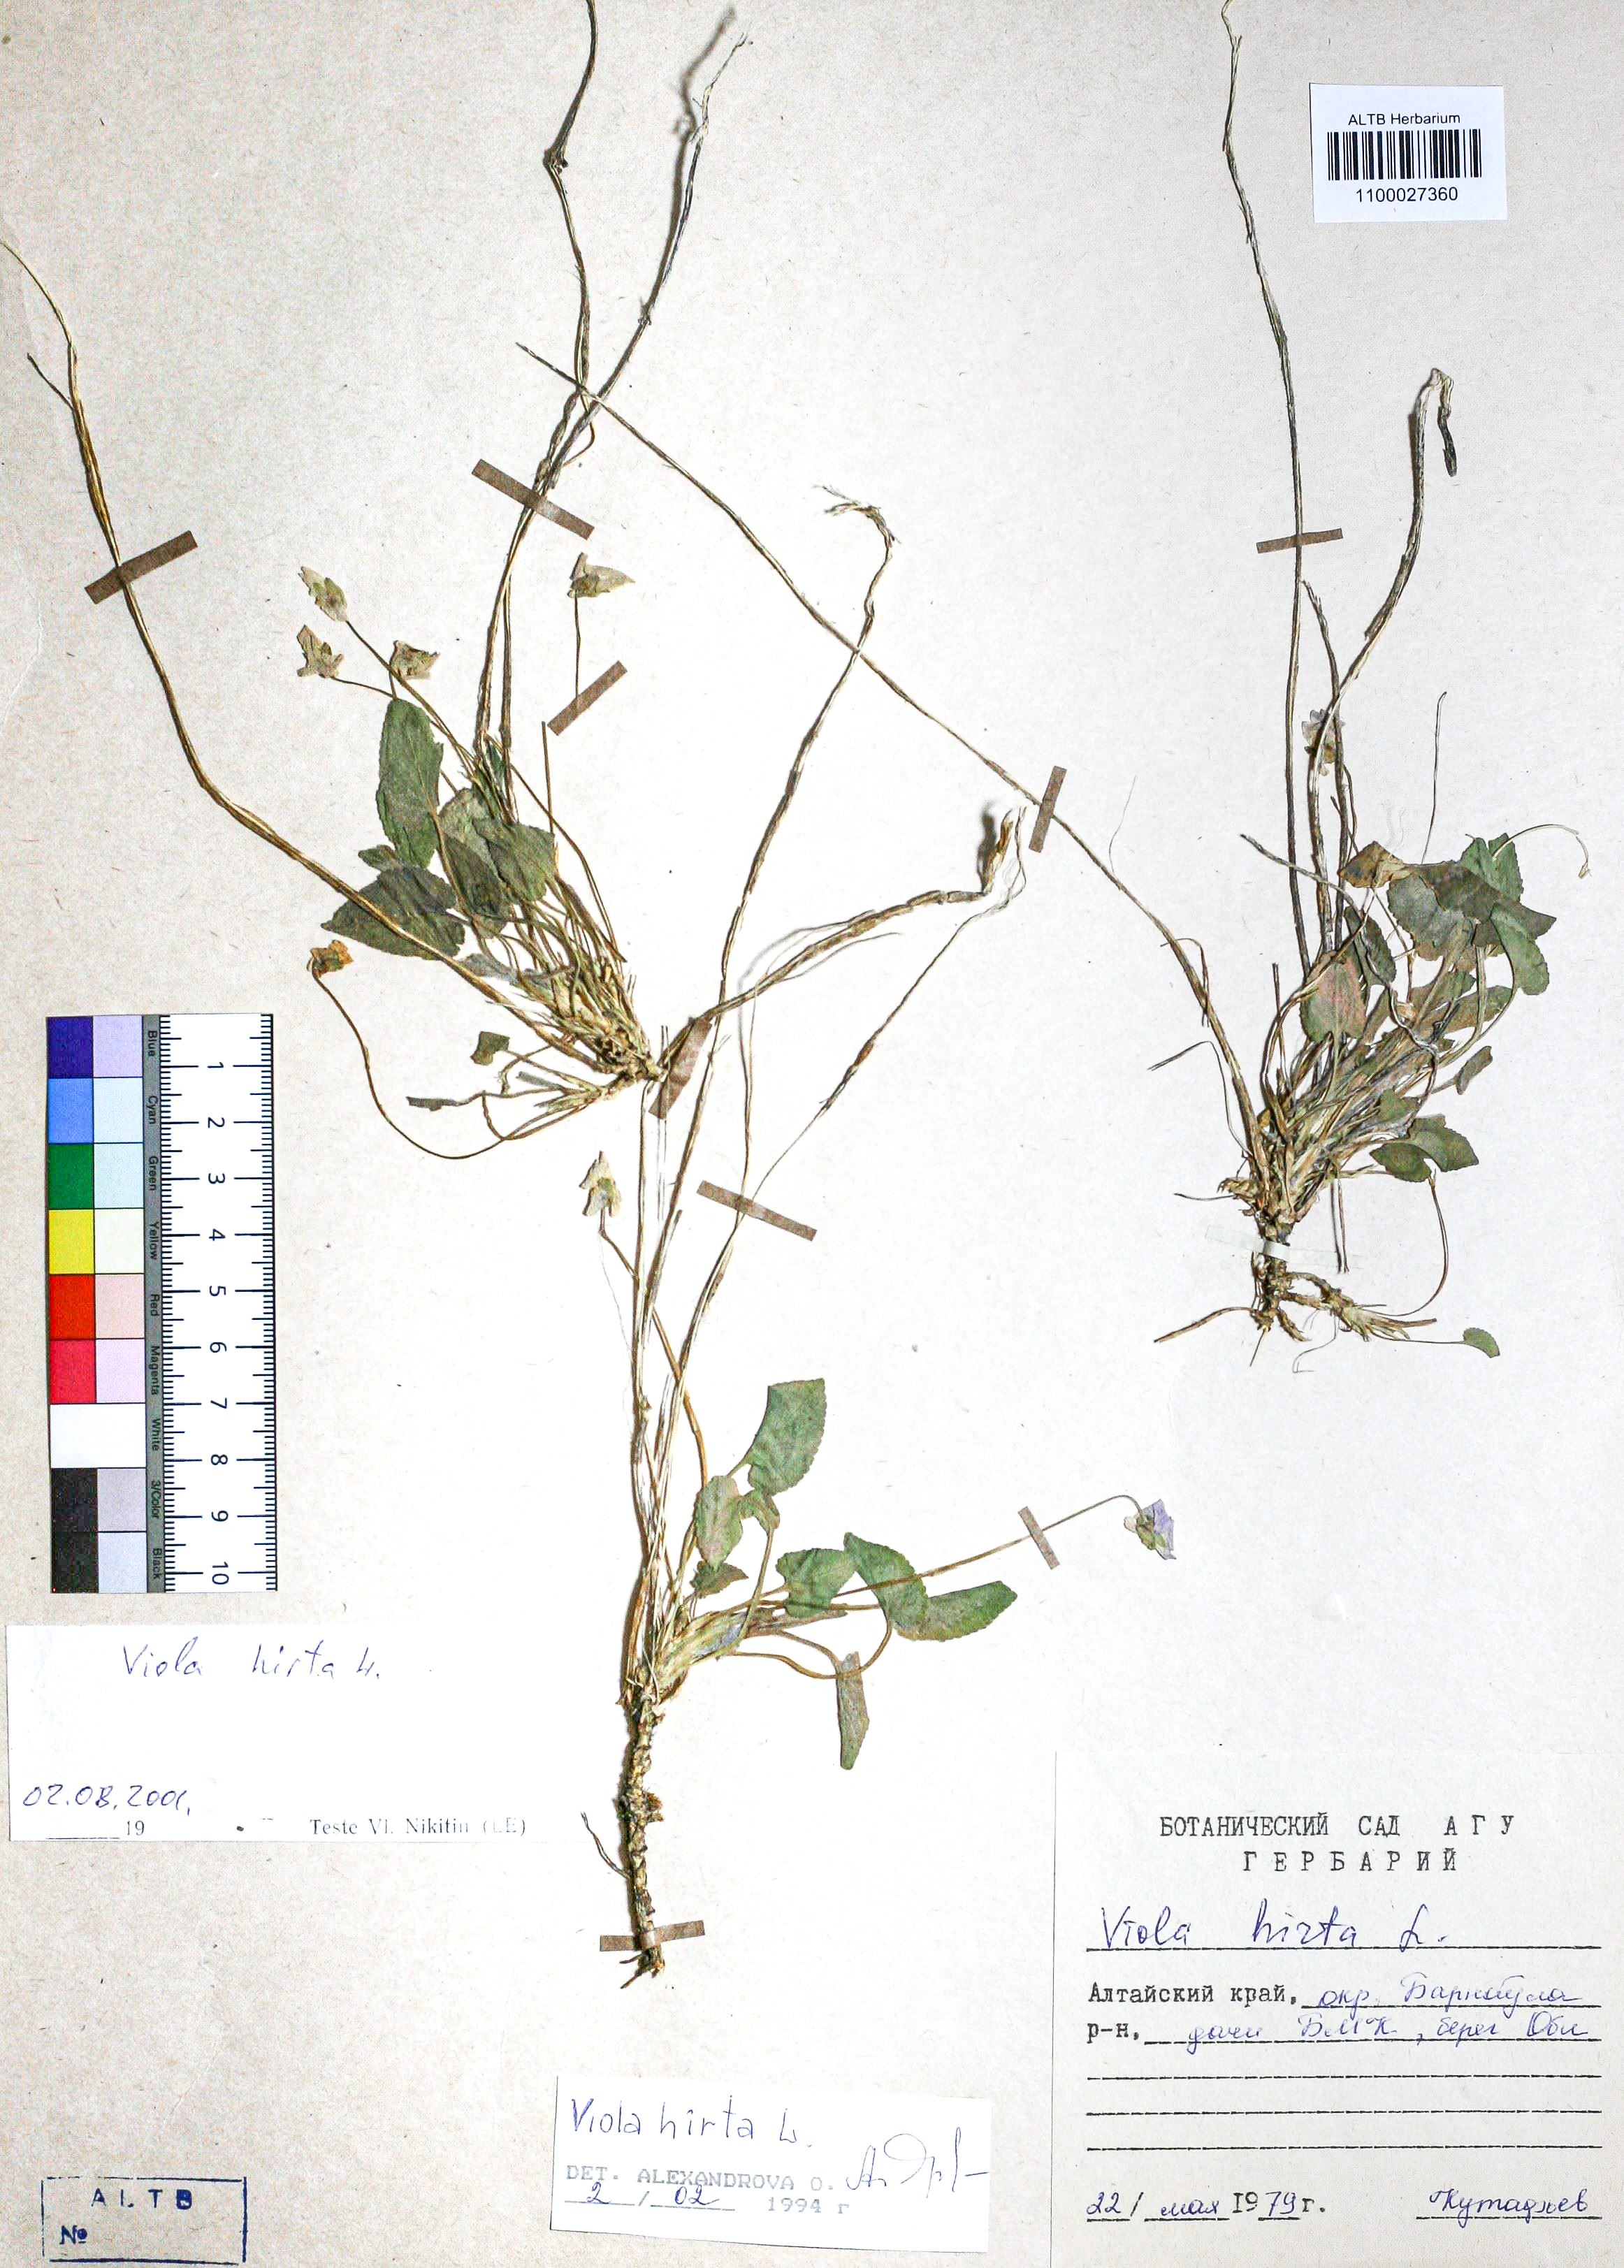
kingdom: Plantae
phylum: Tracheophyta
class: Magnoliopsida
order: Malpighiales
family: Violaceae
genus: Viola
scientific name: Viola hirta
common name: Hairy violet
